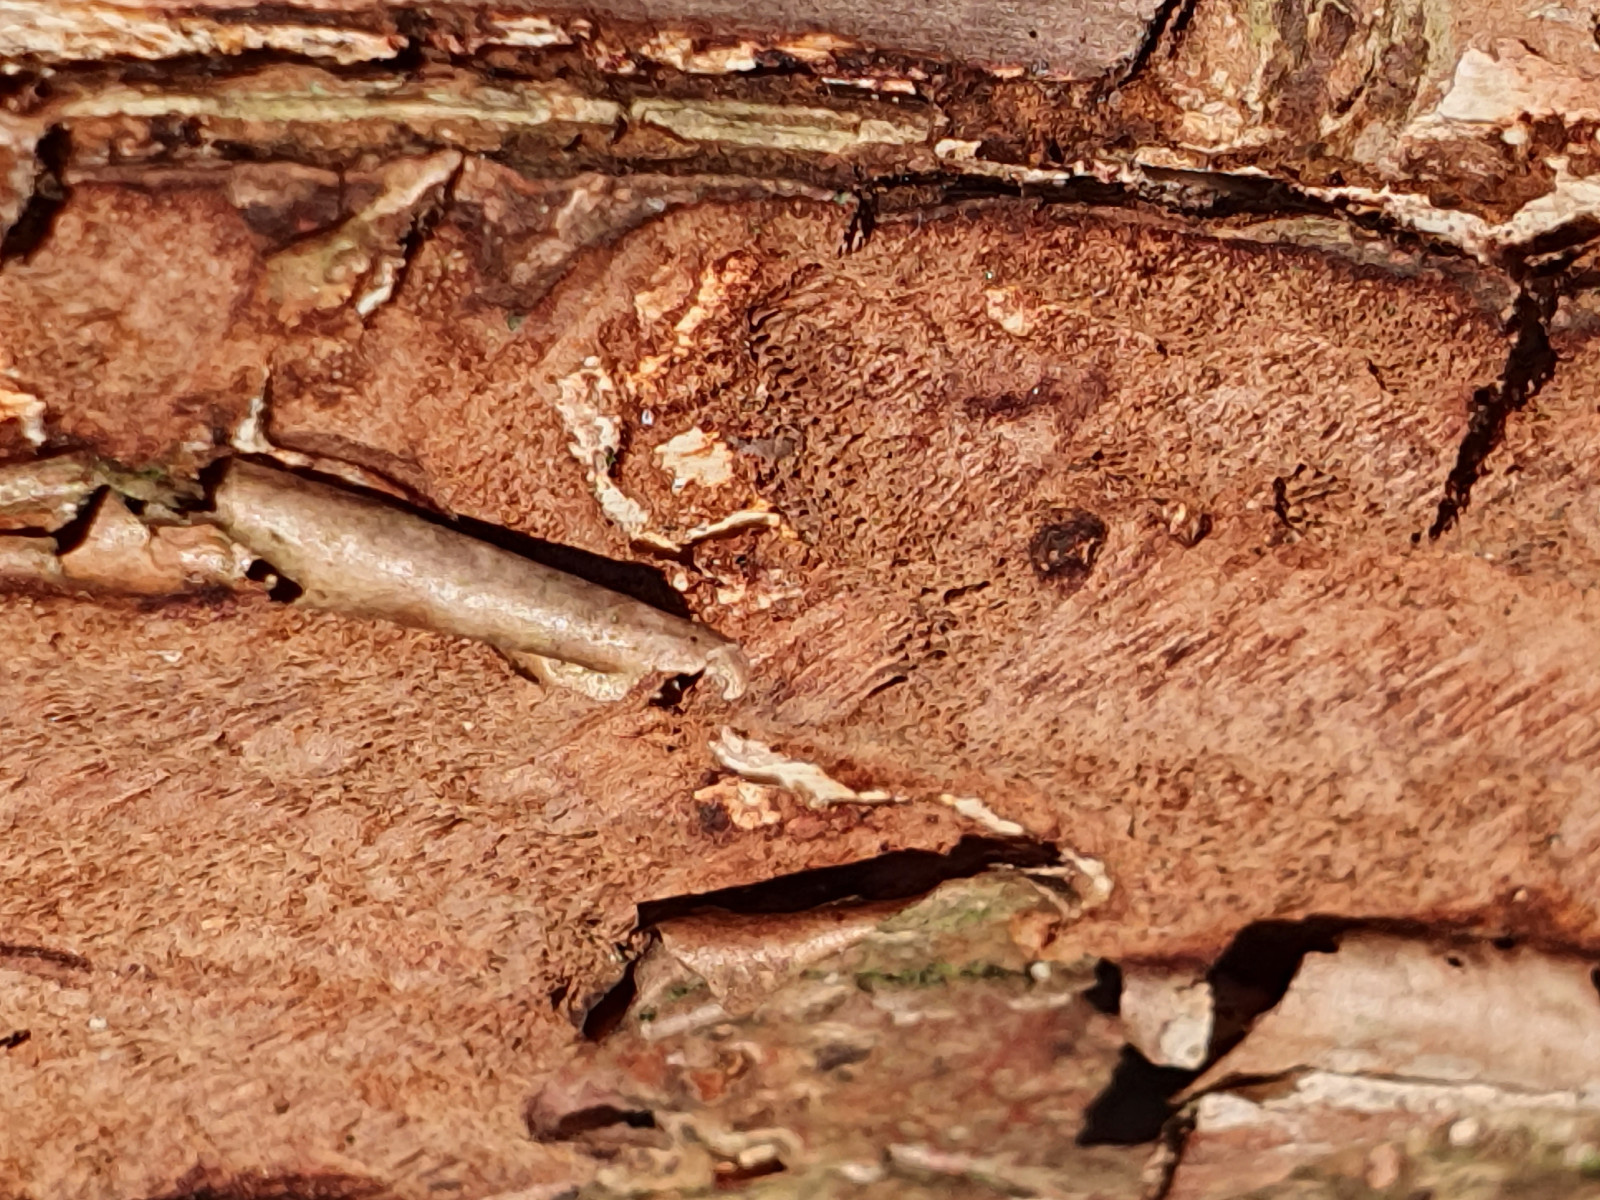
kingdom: Fungi
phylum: Basidiomycota
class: Agaricomycetes
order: Hymenochaetales
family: Hymenochaetaceae
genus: Fuscoporia
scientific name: Fuscoporia ferruginosa
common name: rustbrun ildporesvamp
